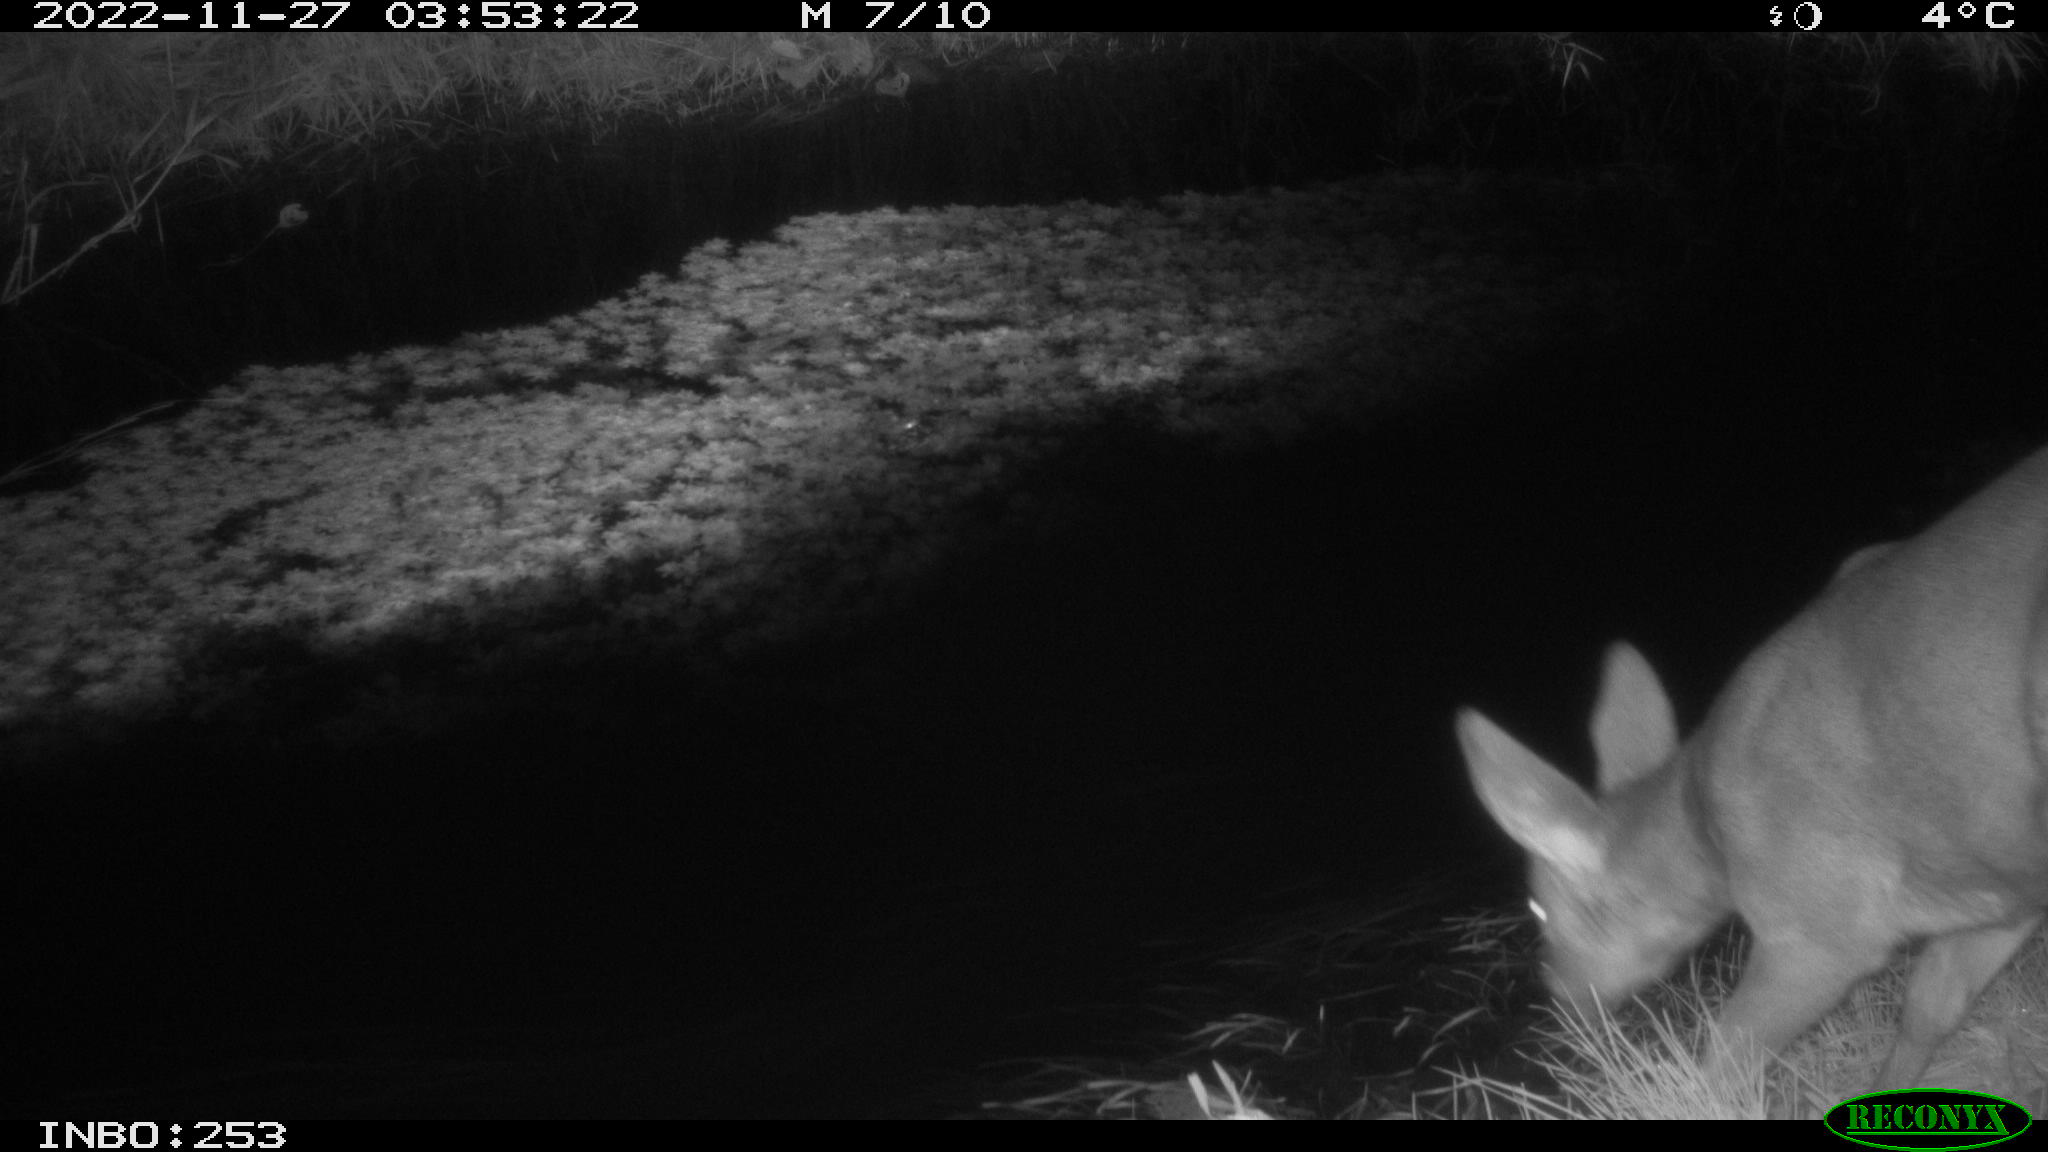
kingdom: Animalia
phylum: Chordata
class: Mammalia
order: Artiodactyla
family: Cervidae
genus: Capreolus
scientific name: Capreolus capreolus
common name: Western roe deer
